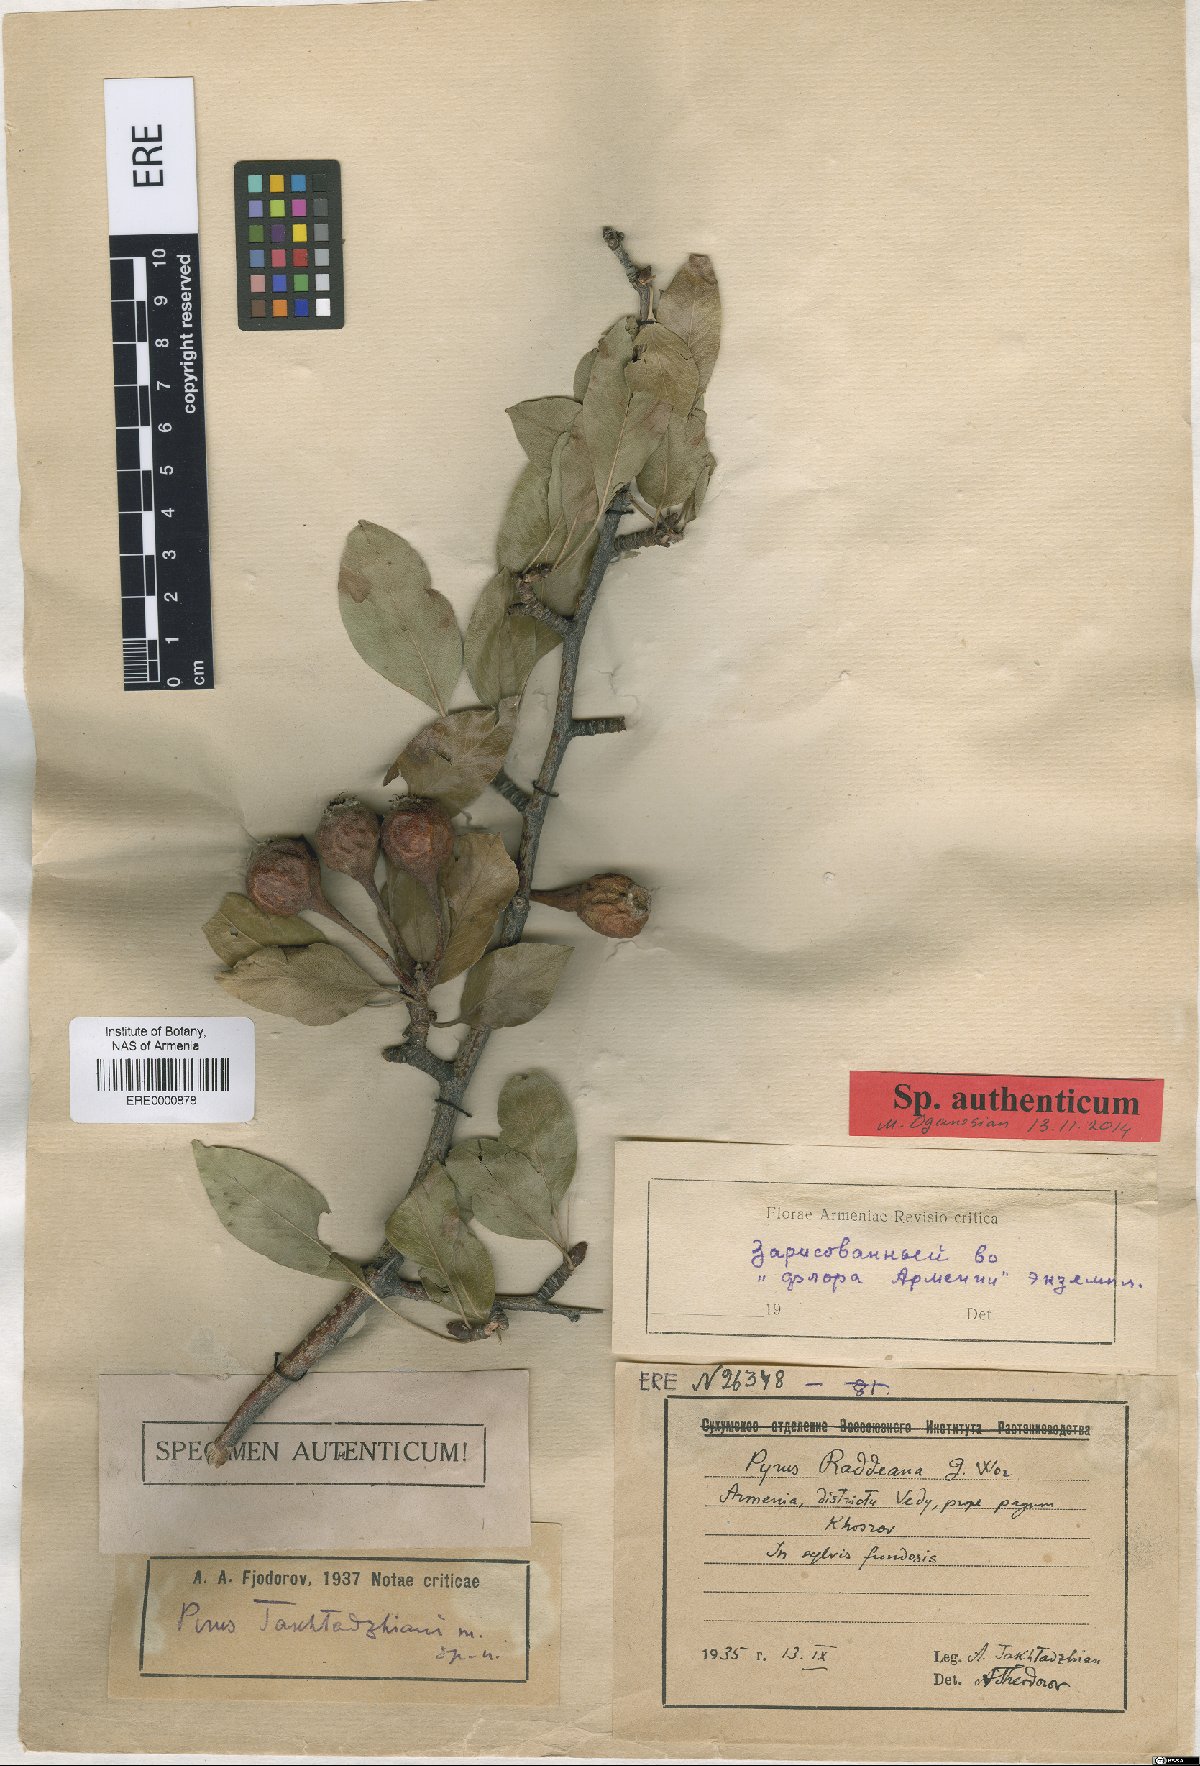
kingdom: Plantae
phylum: Tracheophyta
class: Magnoliopsida
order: Rosales
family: Rosaceae
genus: Pyrus
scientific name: Pyrus takhtadzhianii
